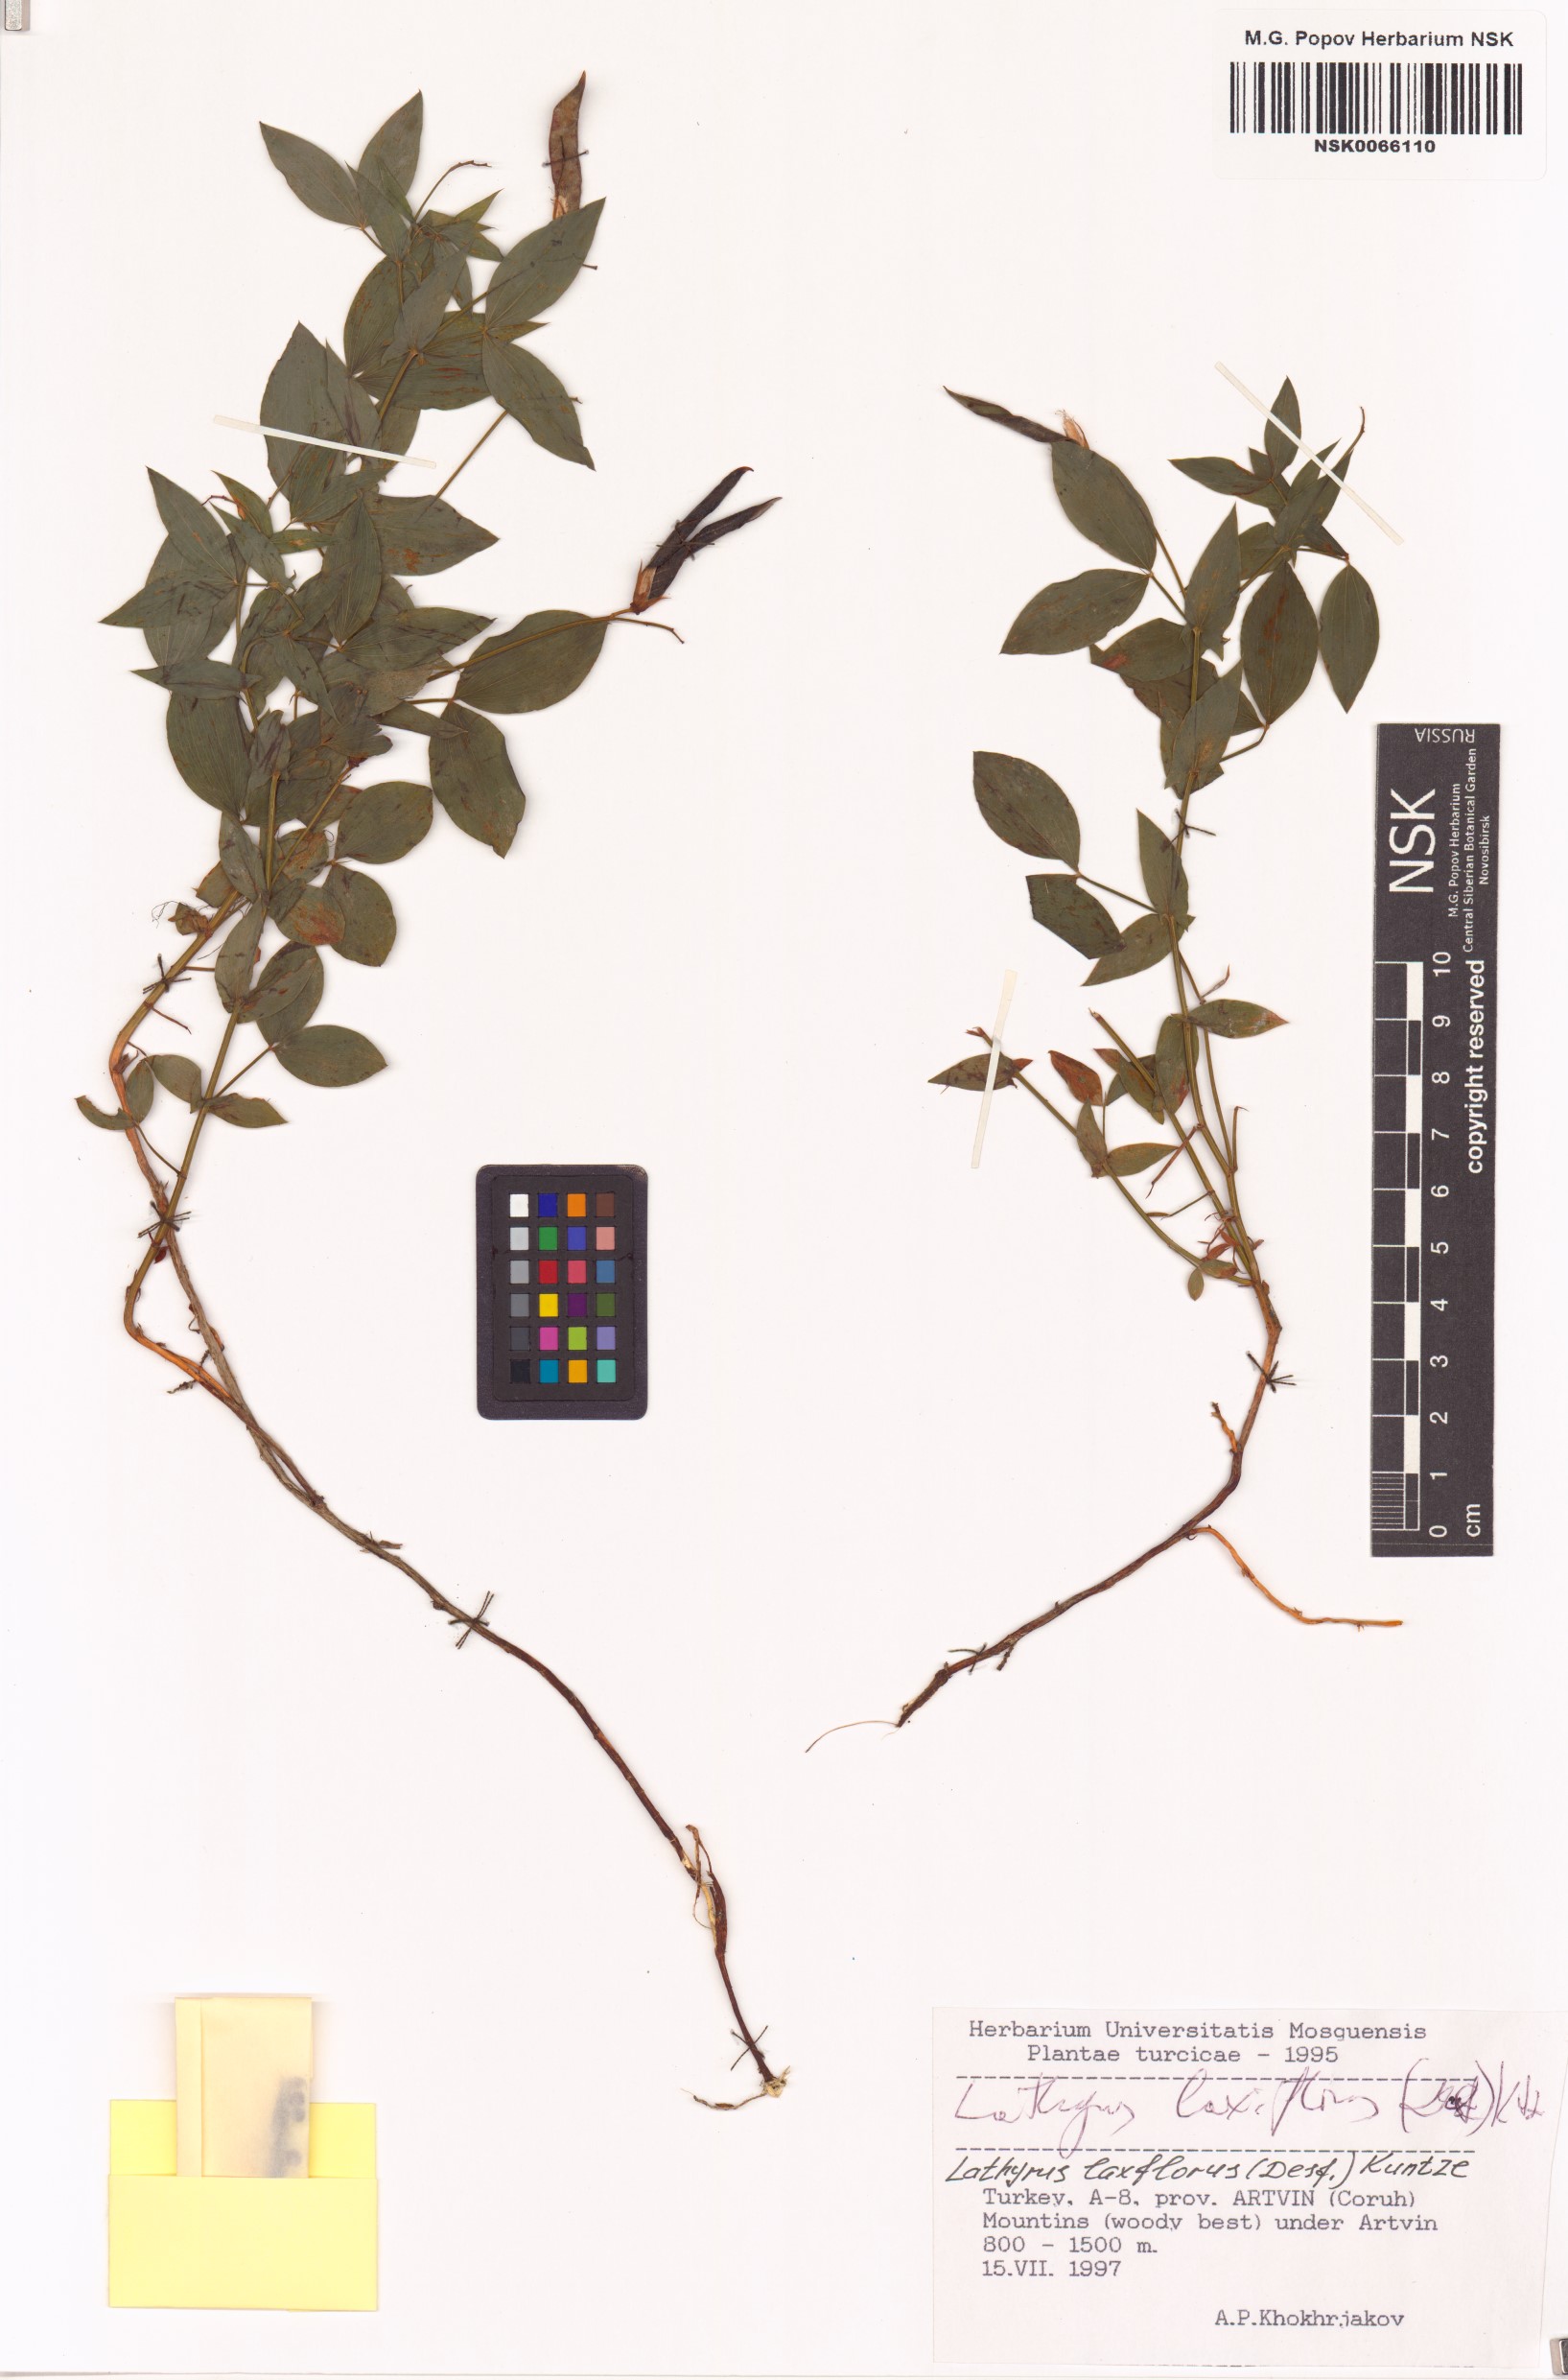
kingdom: Plantae
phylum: Tracheophyta
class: Magnoliopsida
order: Fabales
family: Fabaceae
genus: Lathyrus
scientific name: Lathyrus laxiflorus
